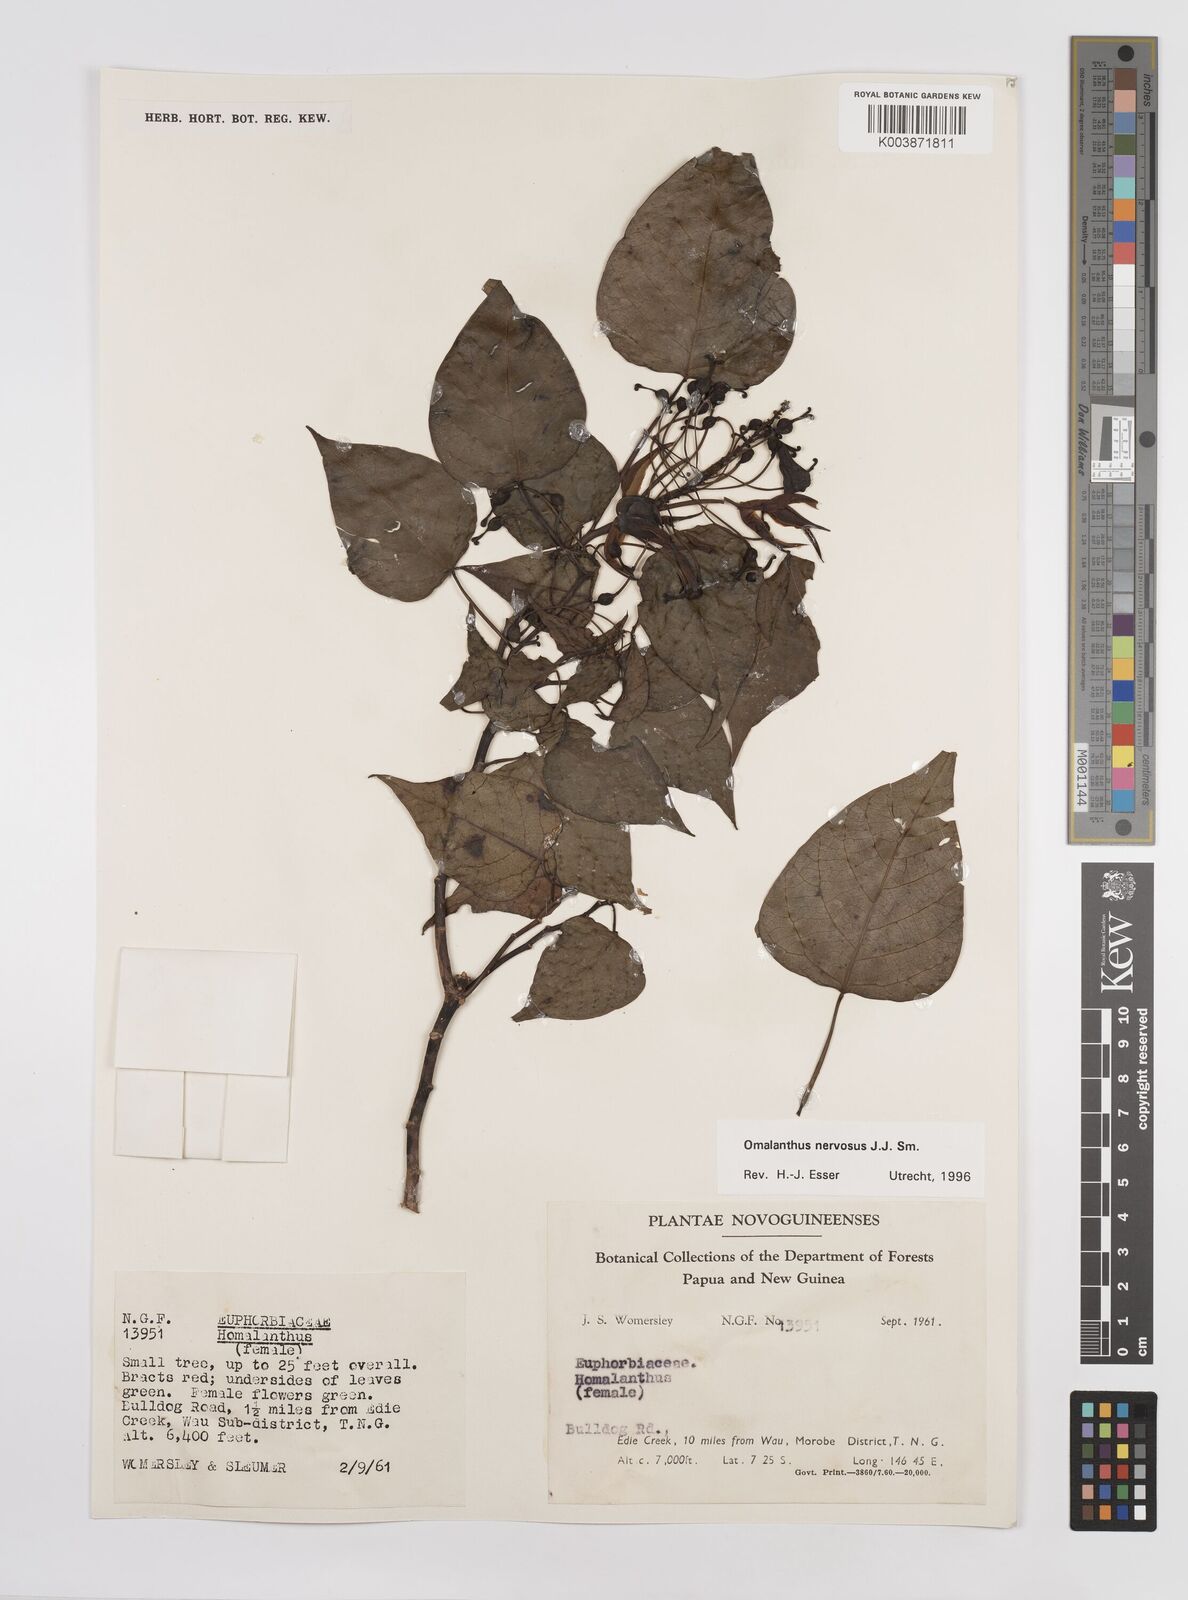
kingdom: Plantae
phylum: Tracheophyta
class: Magnoliopsida
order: Malpighiales
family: Euphorbiaceae
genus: Homalanthus
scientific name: Homalanthus nervosus
